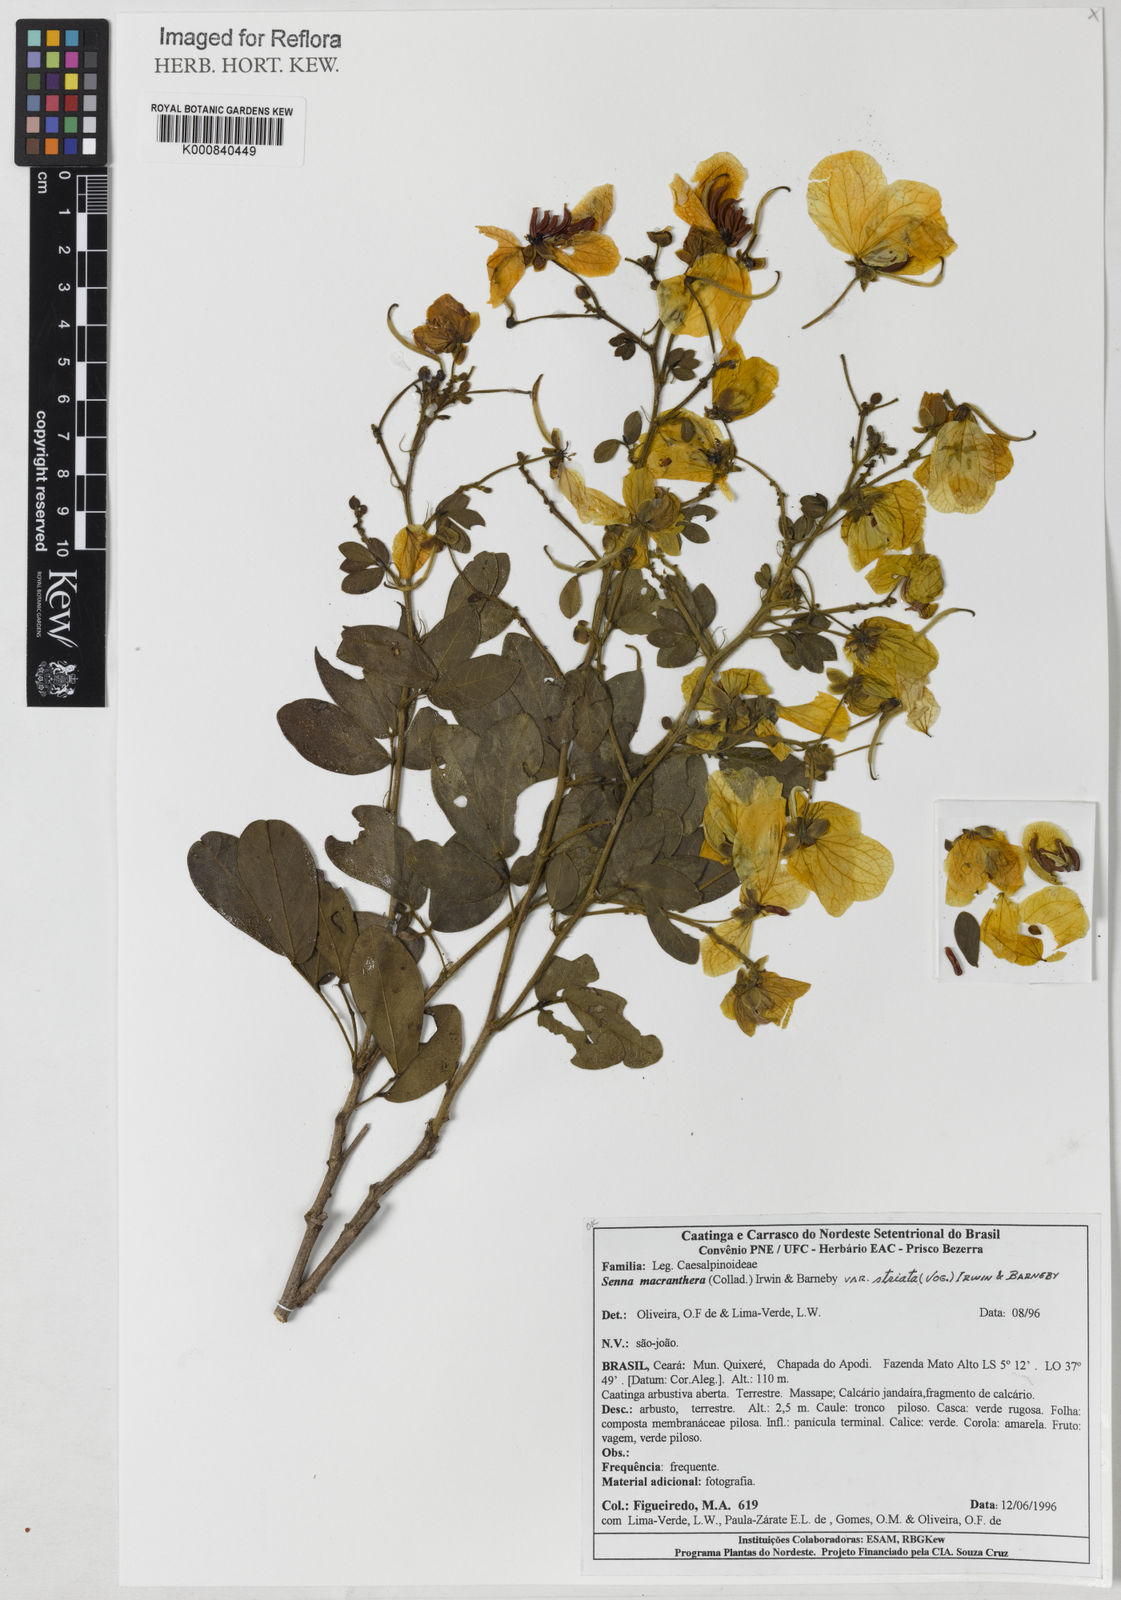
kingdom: Plantae
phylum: Tracheophyta
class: Magnoliopsida
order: Fabales
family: Fabaceae
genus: Senna
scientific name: Senna macranthera
